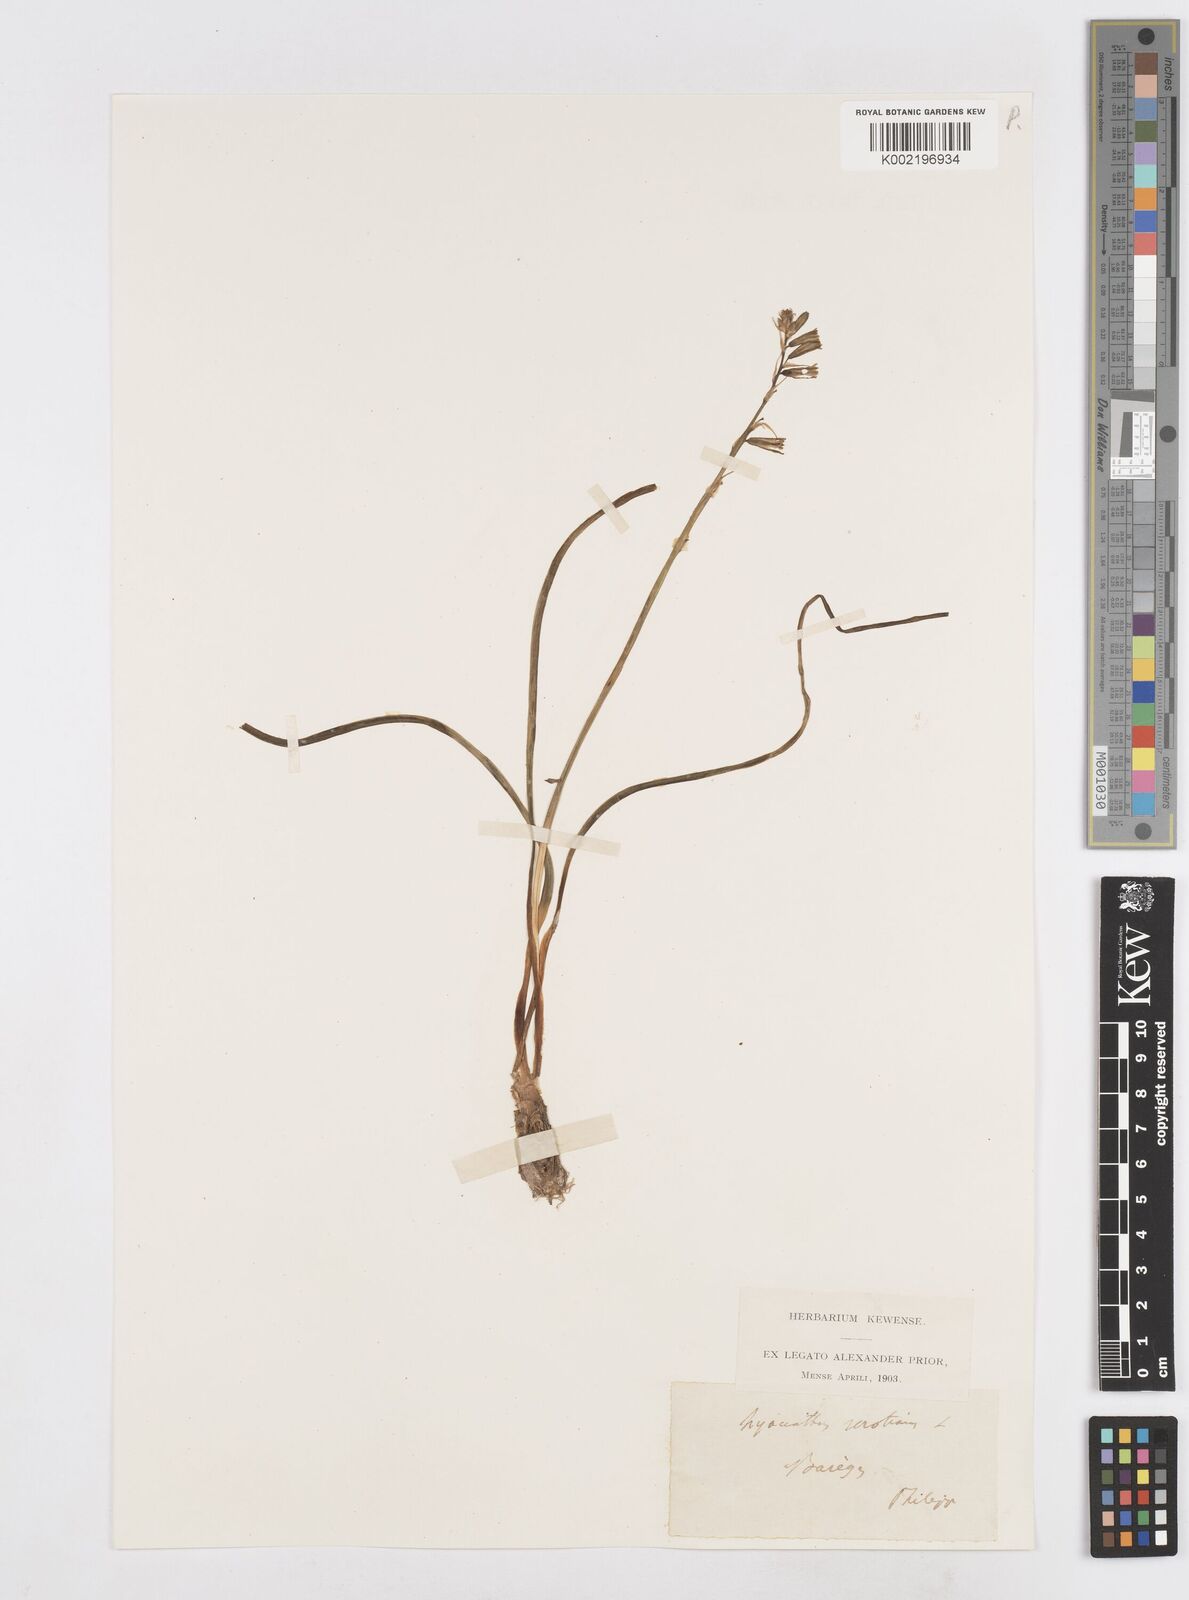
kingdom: Plantae
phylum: Tracheophyta
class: Liliopsida
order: Asparagales
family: Asparagaceae
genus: Dipcadi
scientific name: Dipcadi serotinum
